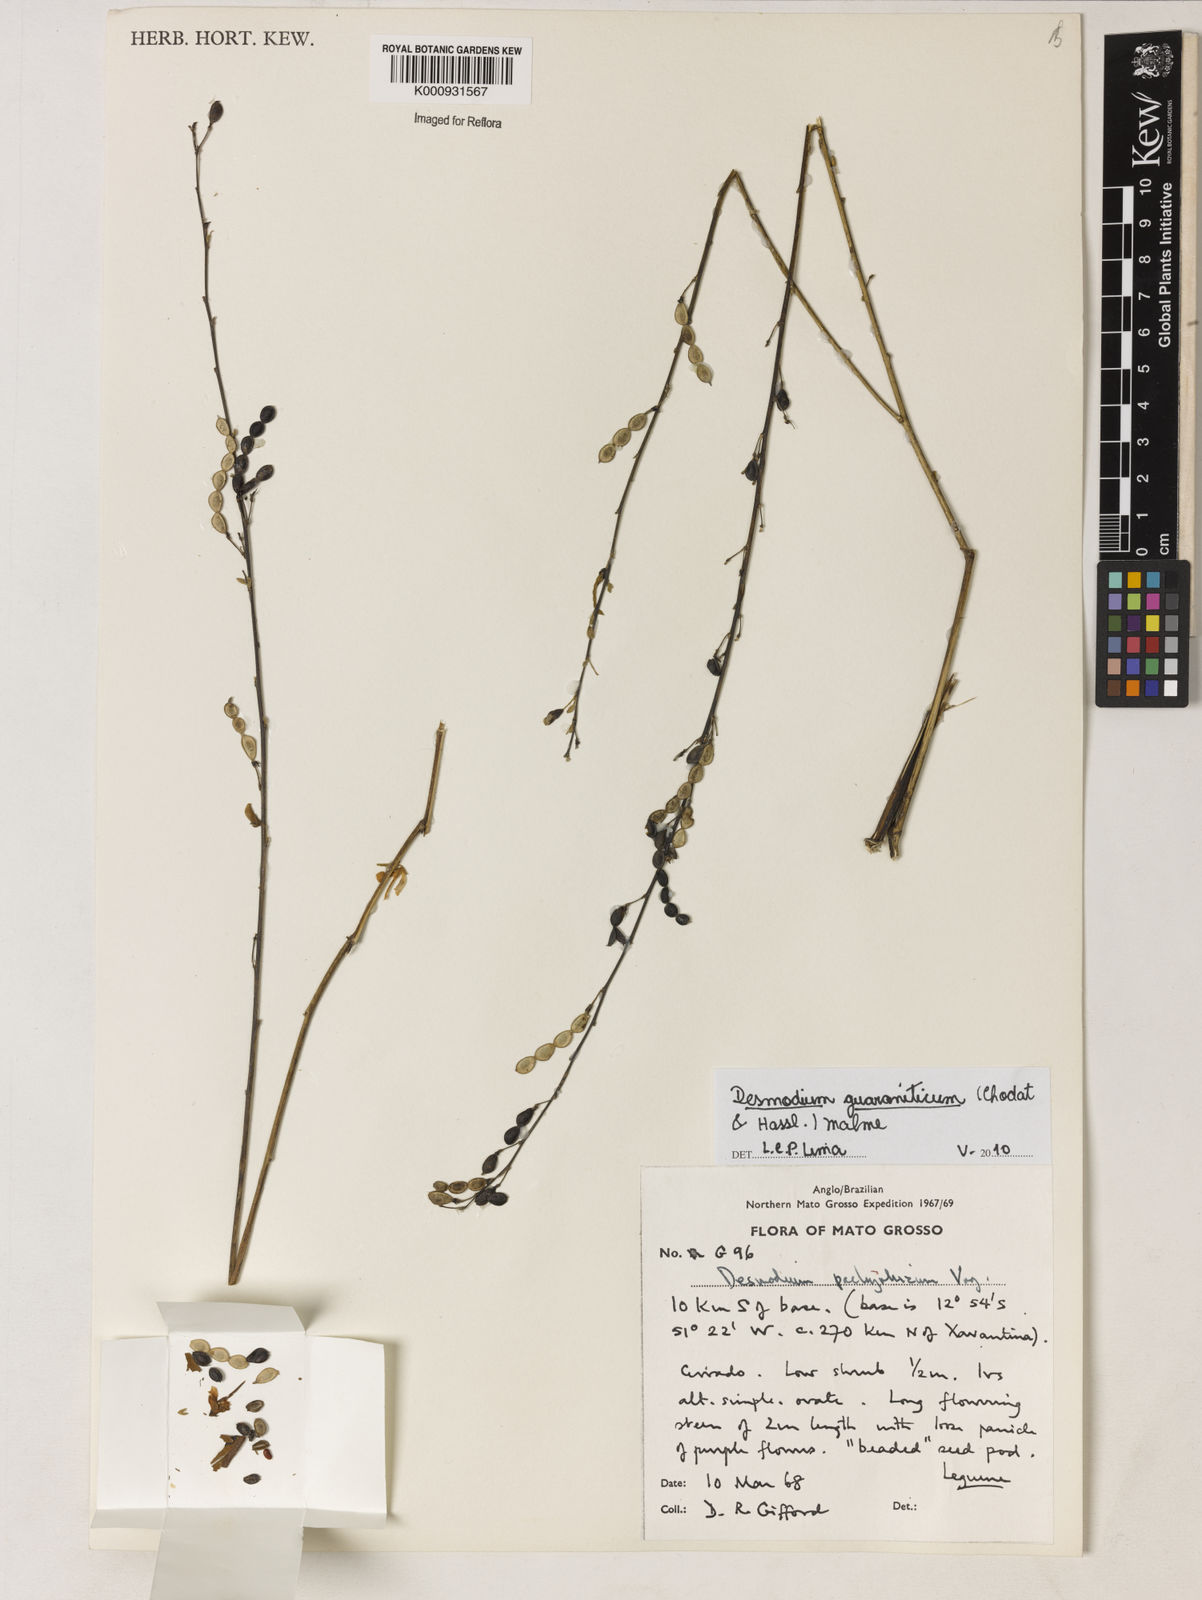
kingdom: Plantae
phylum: Tracheophyta
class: Magnoliopsida
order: Fabales
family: Fabaceae
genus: Desmodium
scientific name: Desmodium guaraniticum
